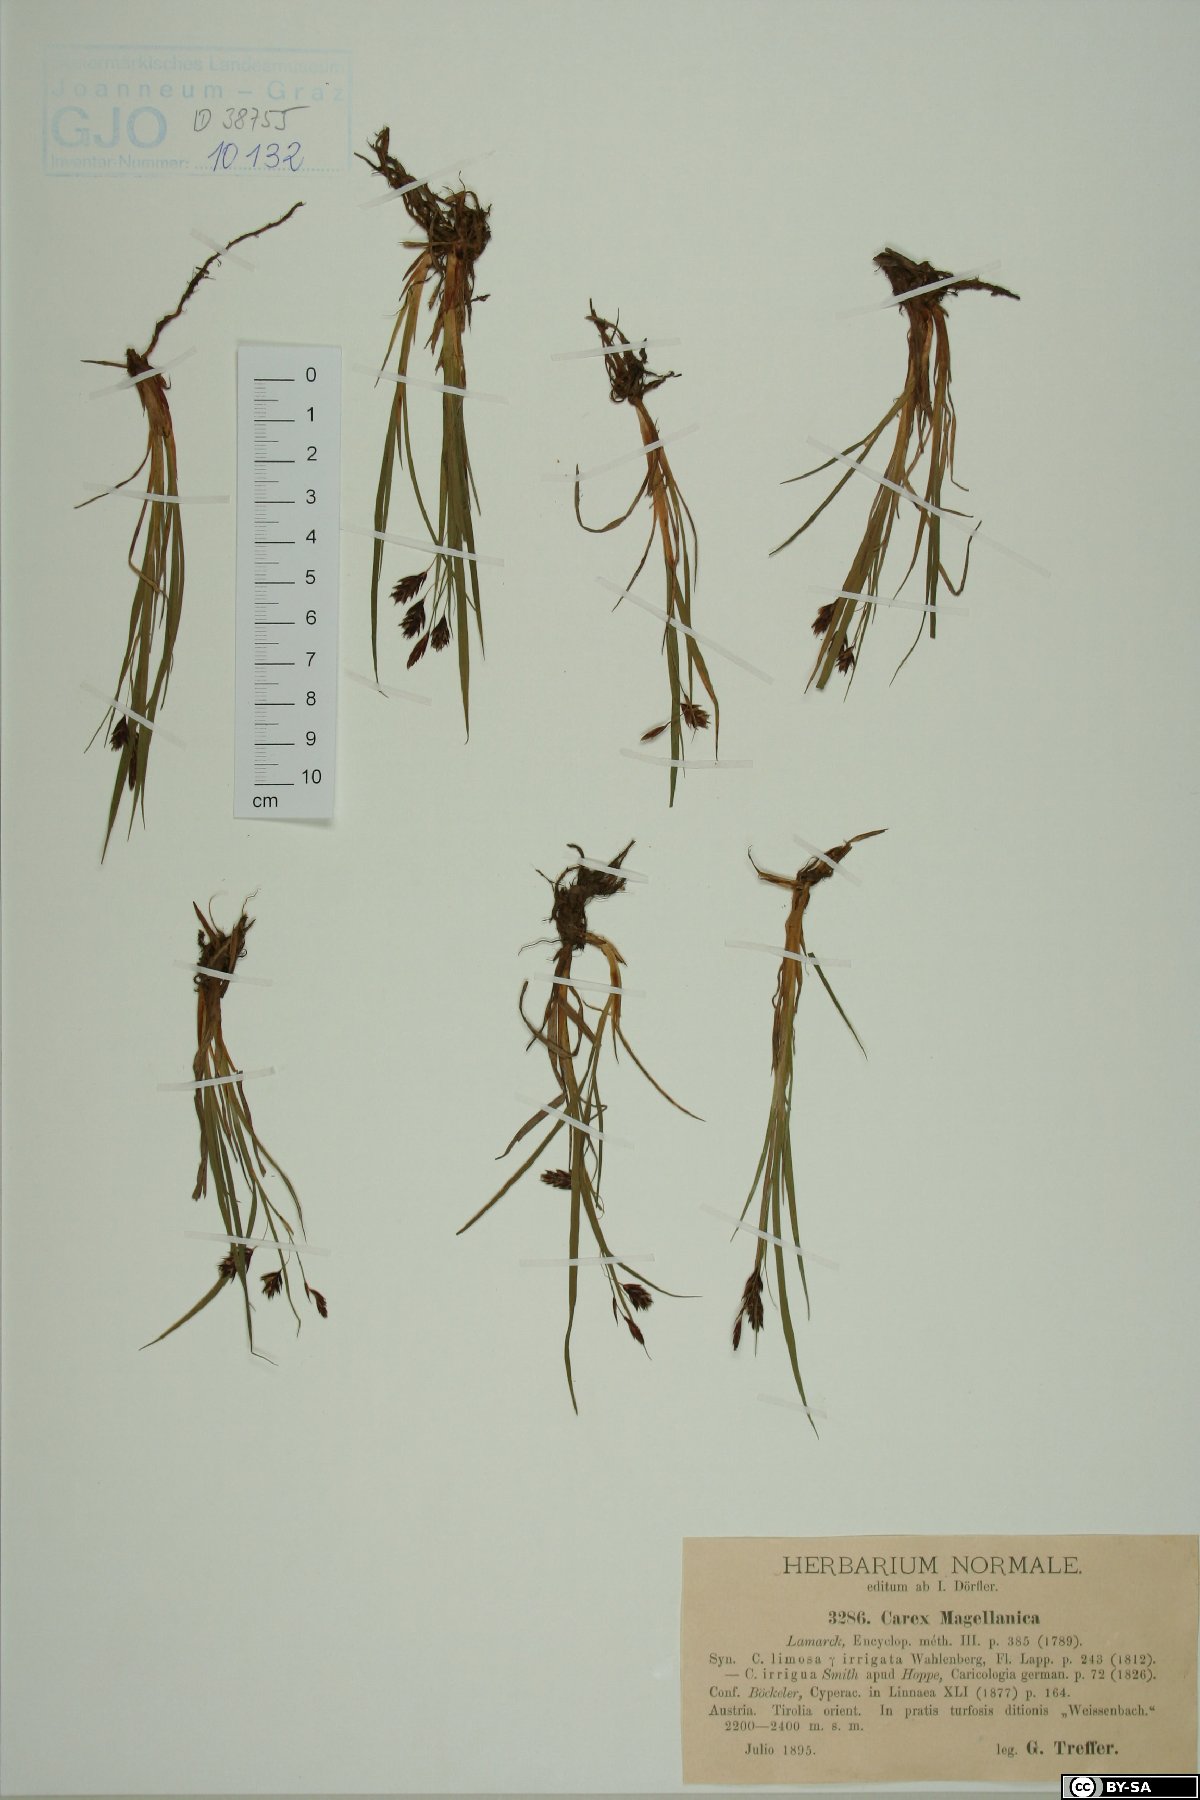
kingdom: Plantae
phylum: Tracheophyta
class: Liliopsida
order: Poales
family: Cyperaceae
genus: Carex
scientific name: Carex magellanica
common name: Bog sedge
